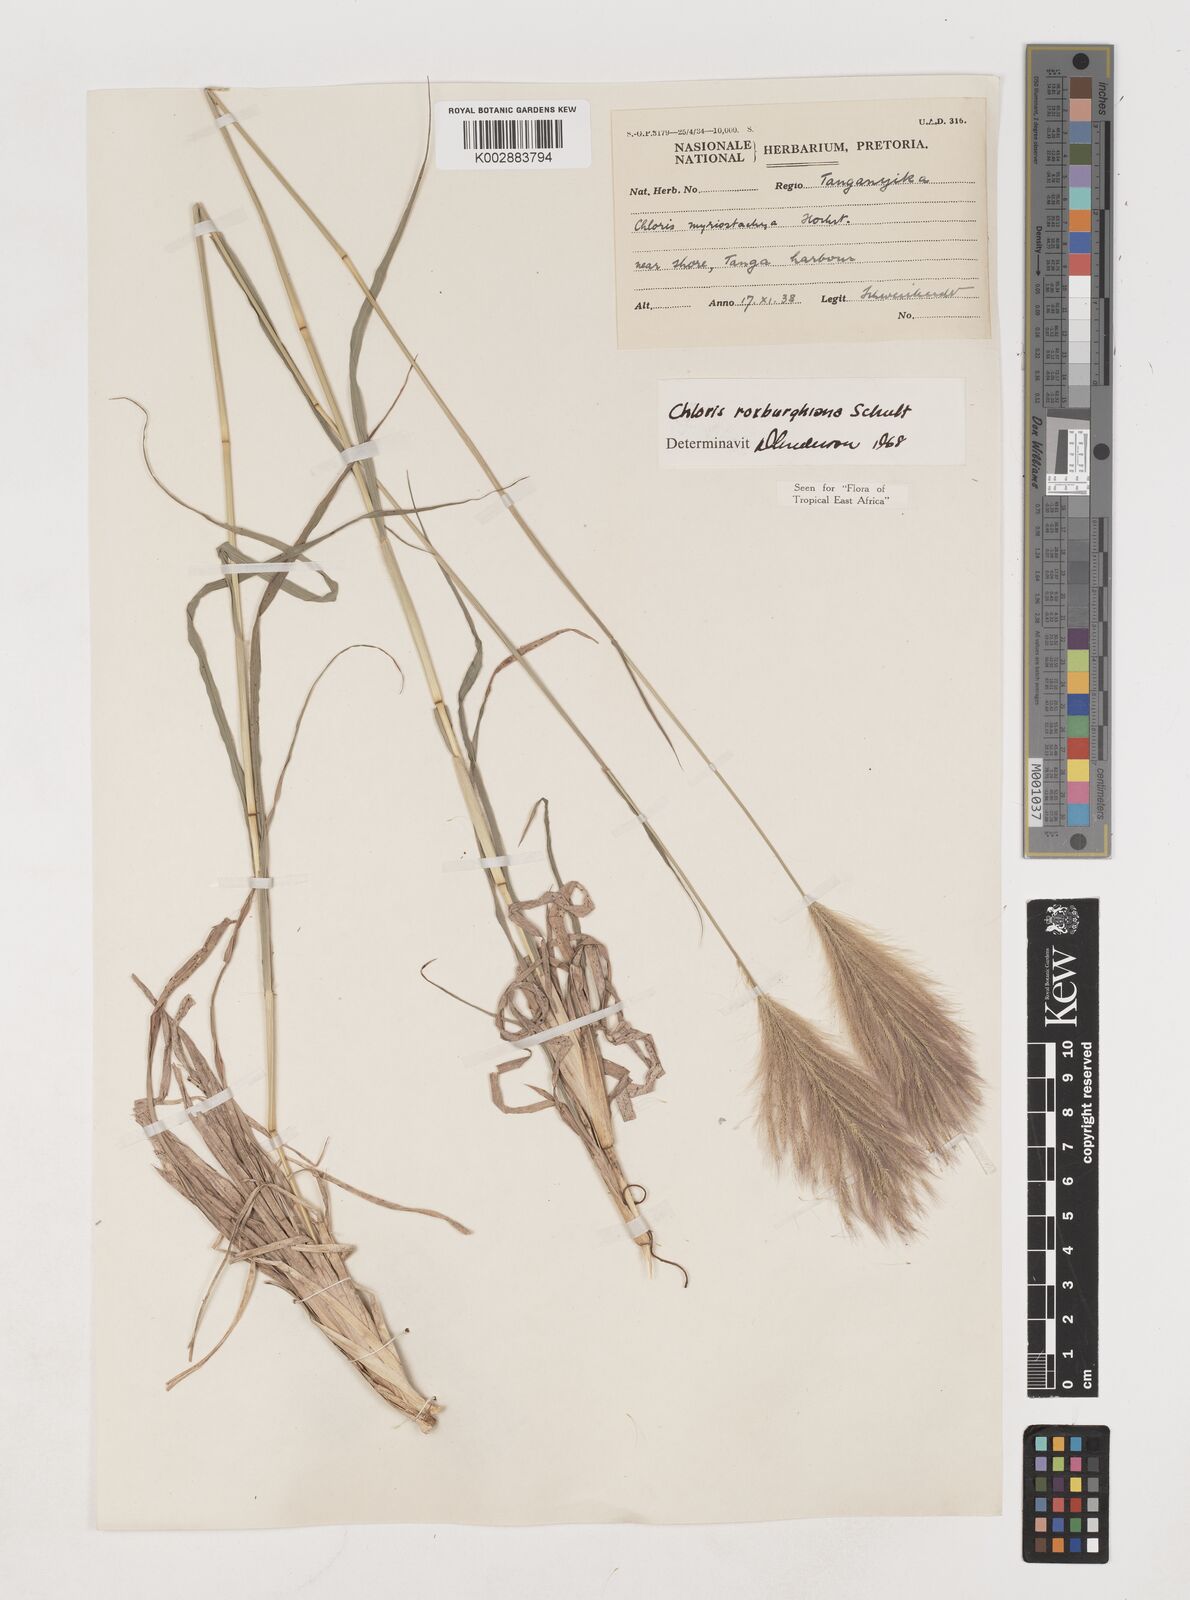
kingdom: Plantae
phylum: Tracheophyta
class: Liliopsida
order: Poales
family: Poaceae
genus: Tetrapogon
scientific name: Tetrapogon roxburghiana
